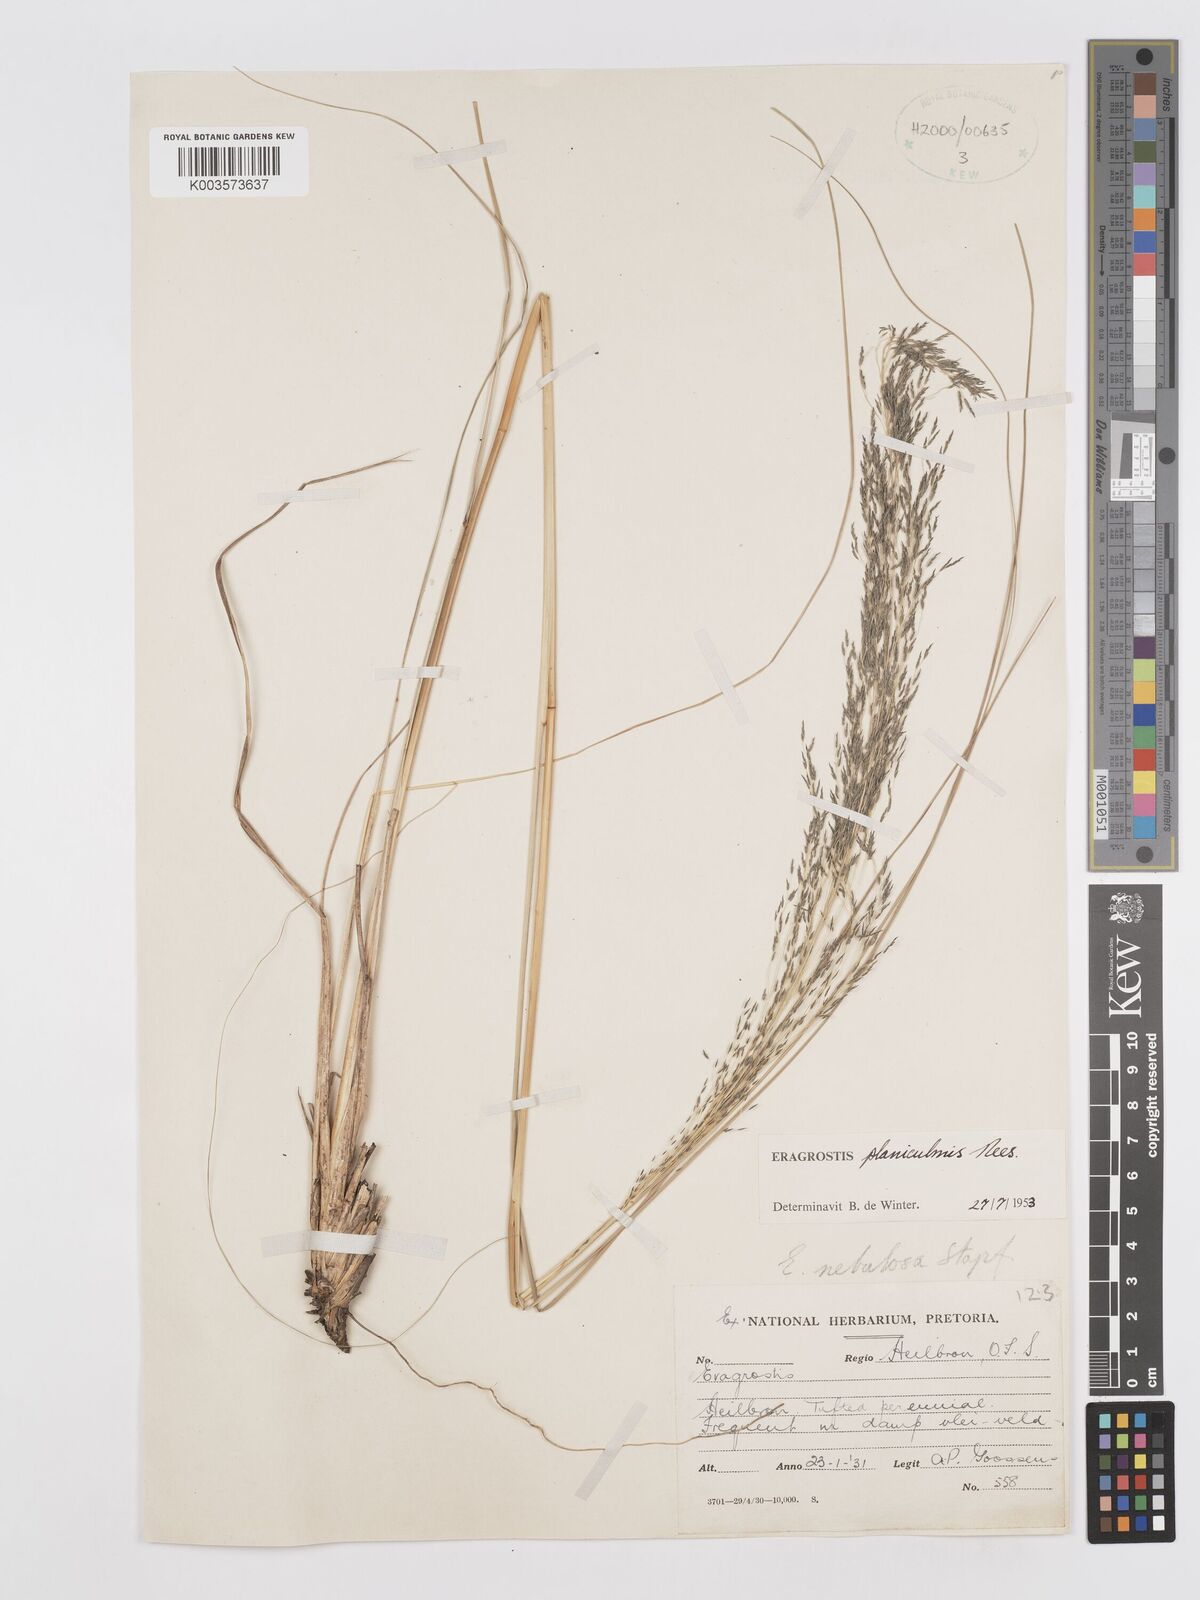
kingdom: Plantae
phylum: Tracheophyta
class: Liliopsida
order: Poales
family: Poaceae
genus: Eragrostis
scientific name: Eragrostis planiculmis
